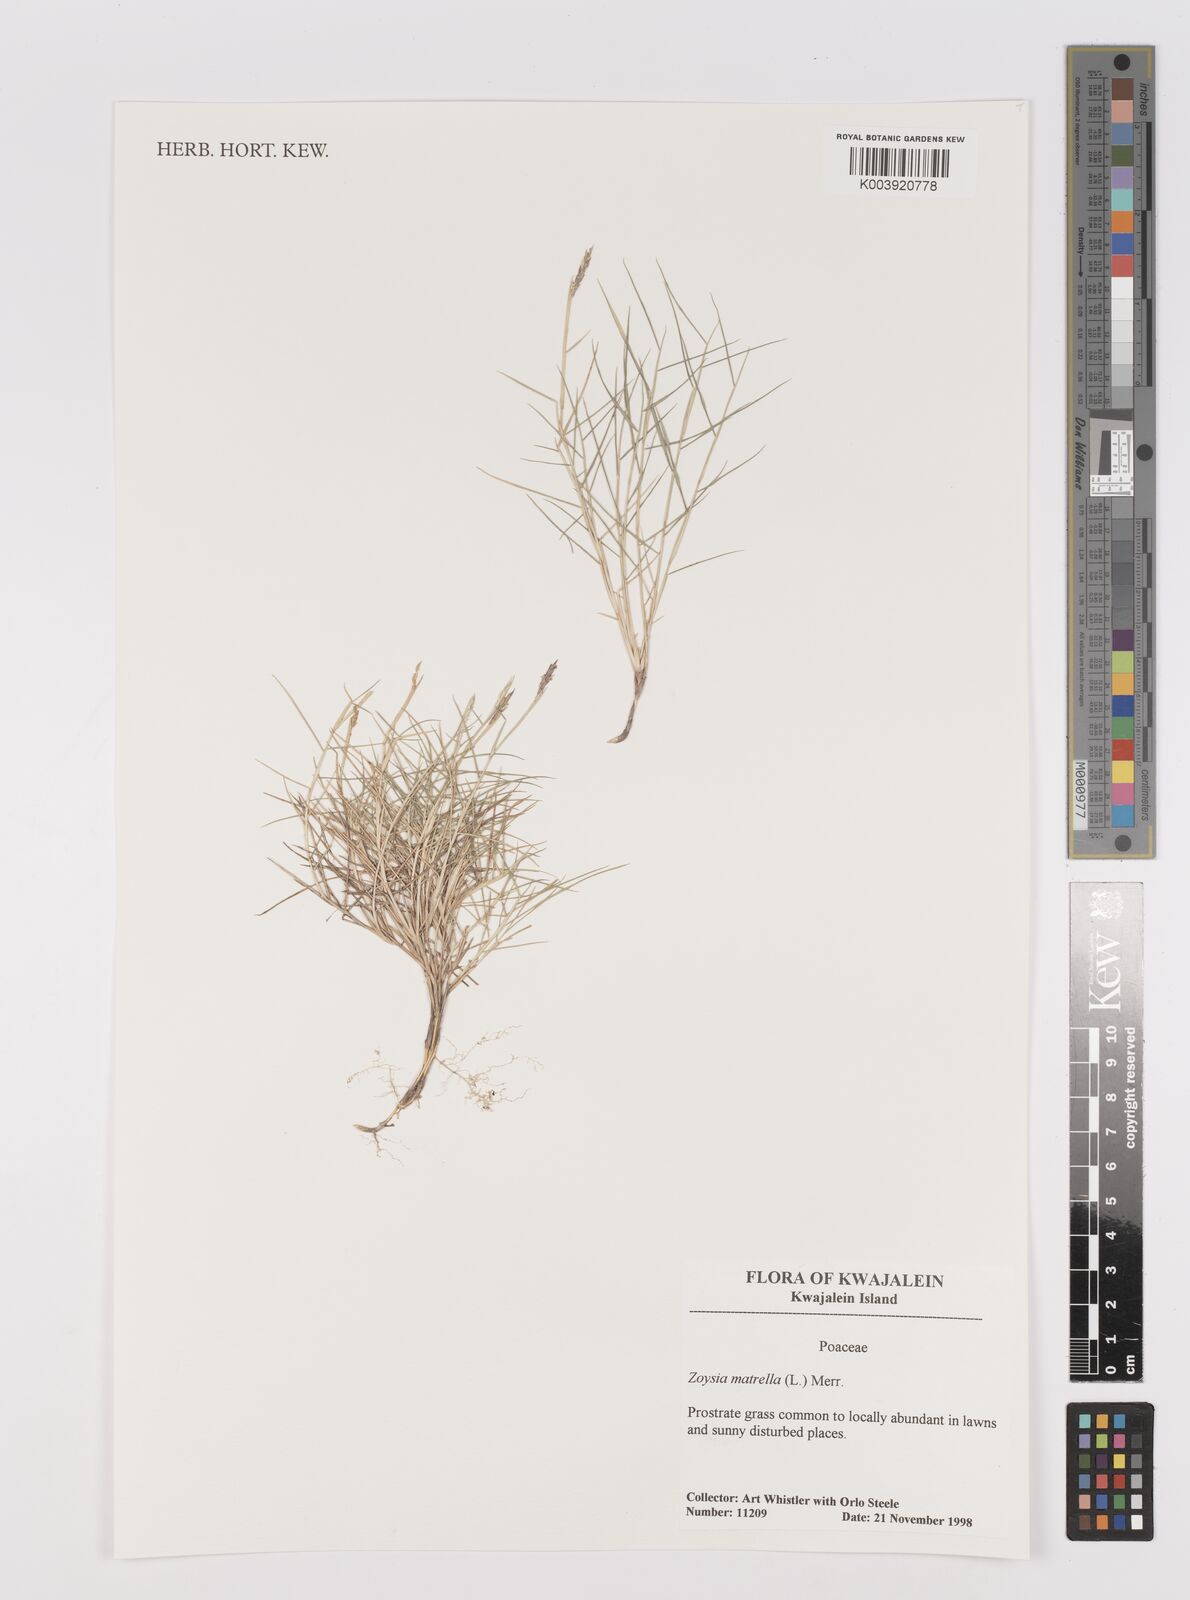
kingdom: Plantae
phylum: Tracheophyta
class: Liliopsida
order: Poales
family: Poaceae
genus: Zoysia
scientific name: Zoysia matrella
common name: Manila grass
